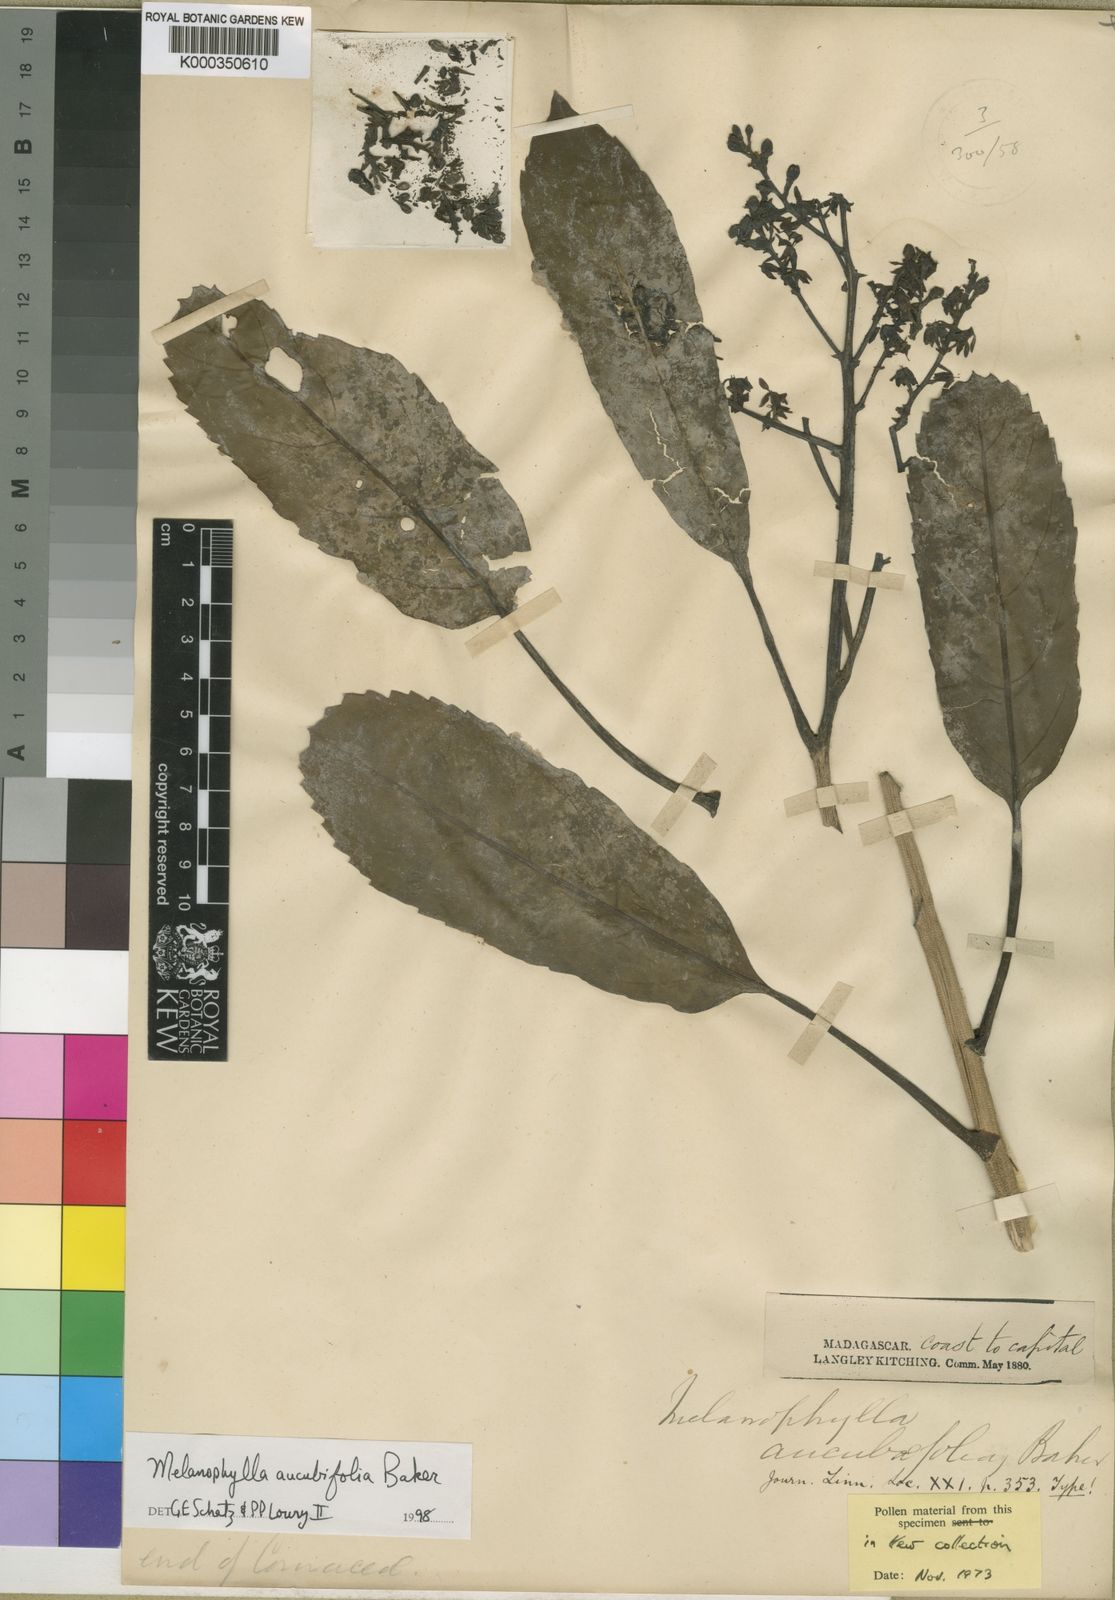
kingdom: Plantae
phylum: Tracheophyta
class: Magnoliopsida
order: Apiales
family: Torricelliaceae
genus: Melanophylla
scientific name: Melanophylla aucubifolia
